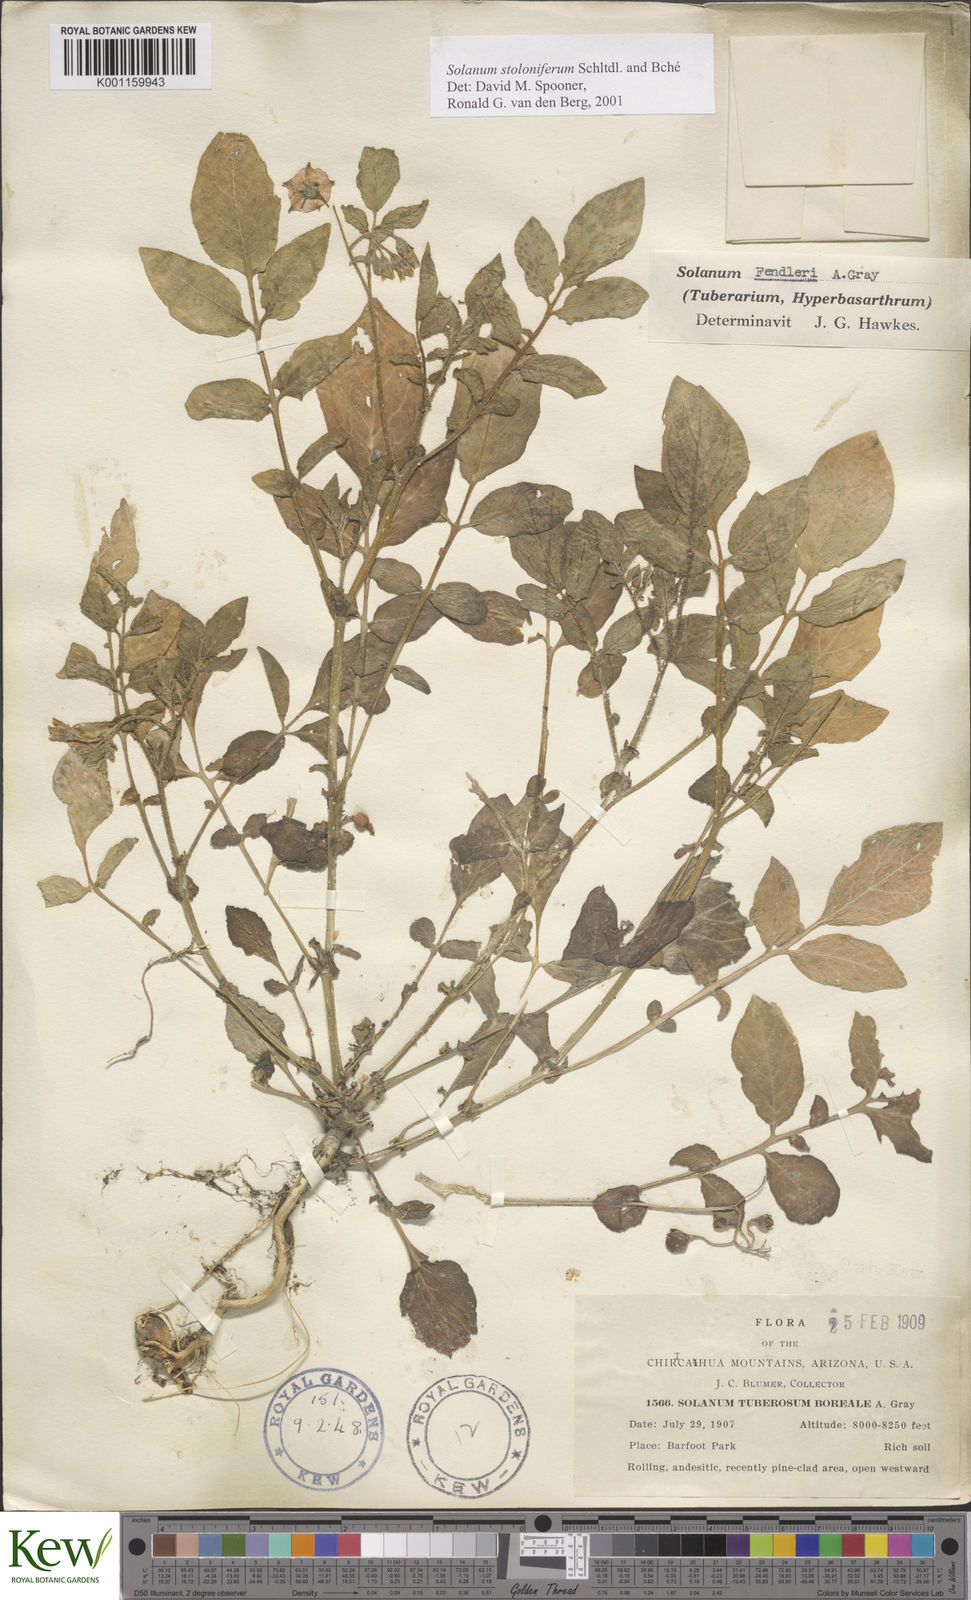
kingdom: Plantae
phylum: Tracheophyta
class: Magnoliopsida
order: Solanales
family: Solanaceae
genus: Solanum
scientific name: Solanum stoloniferum
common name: Fendler's nighshade
